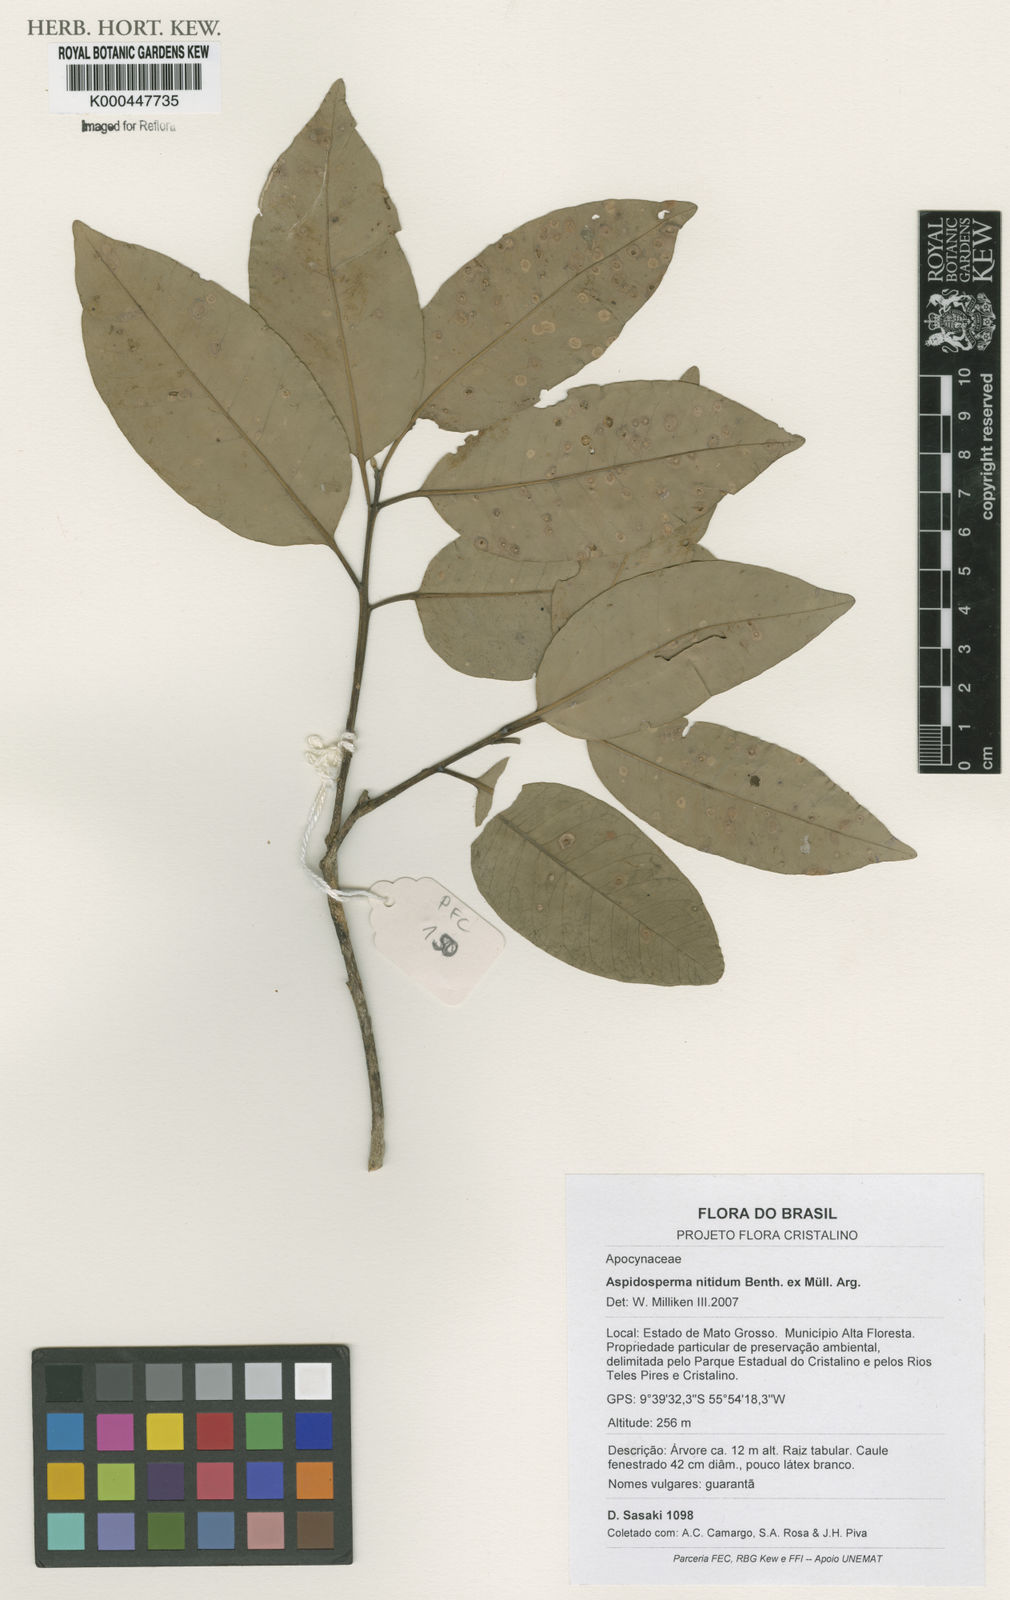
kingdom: Plantae
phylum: Tracheophyta
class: Magnoliopsida
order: Gentianales
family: Apocynaceae
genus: Aspidosperma
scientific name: Aspidosperma
